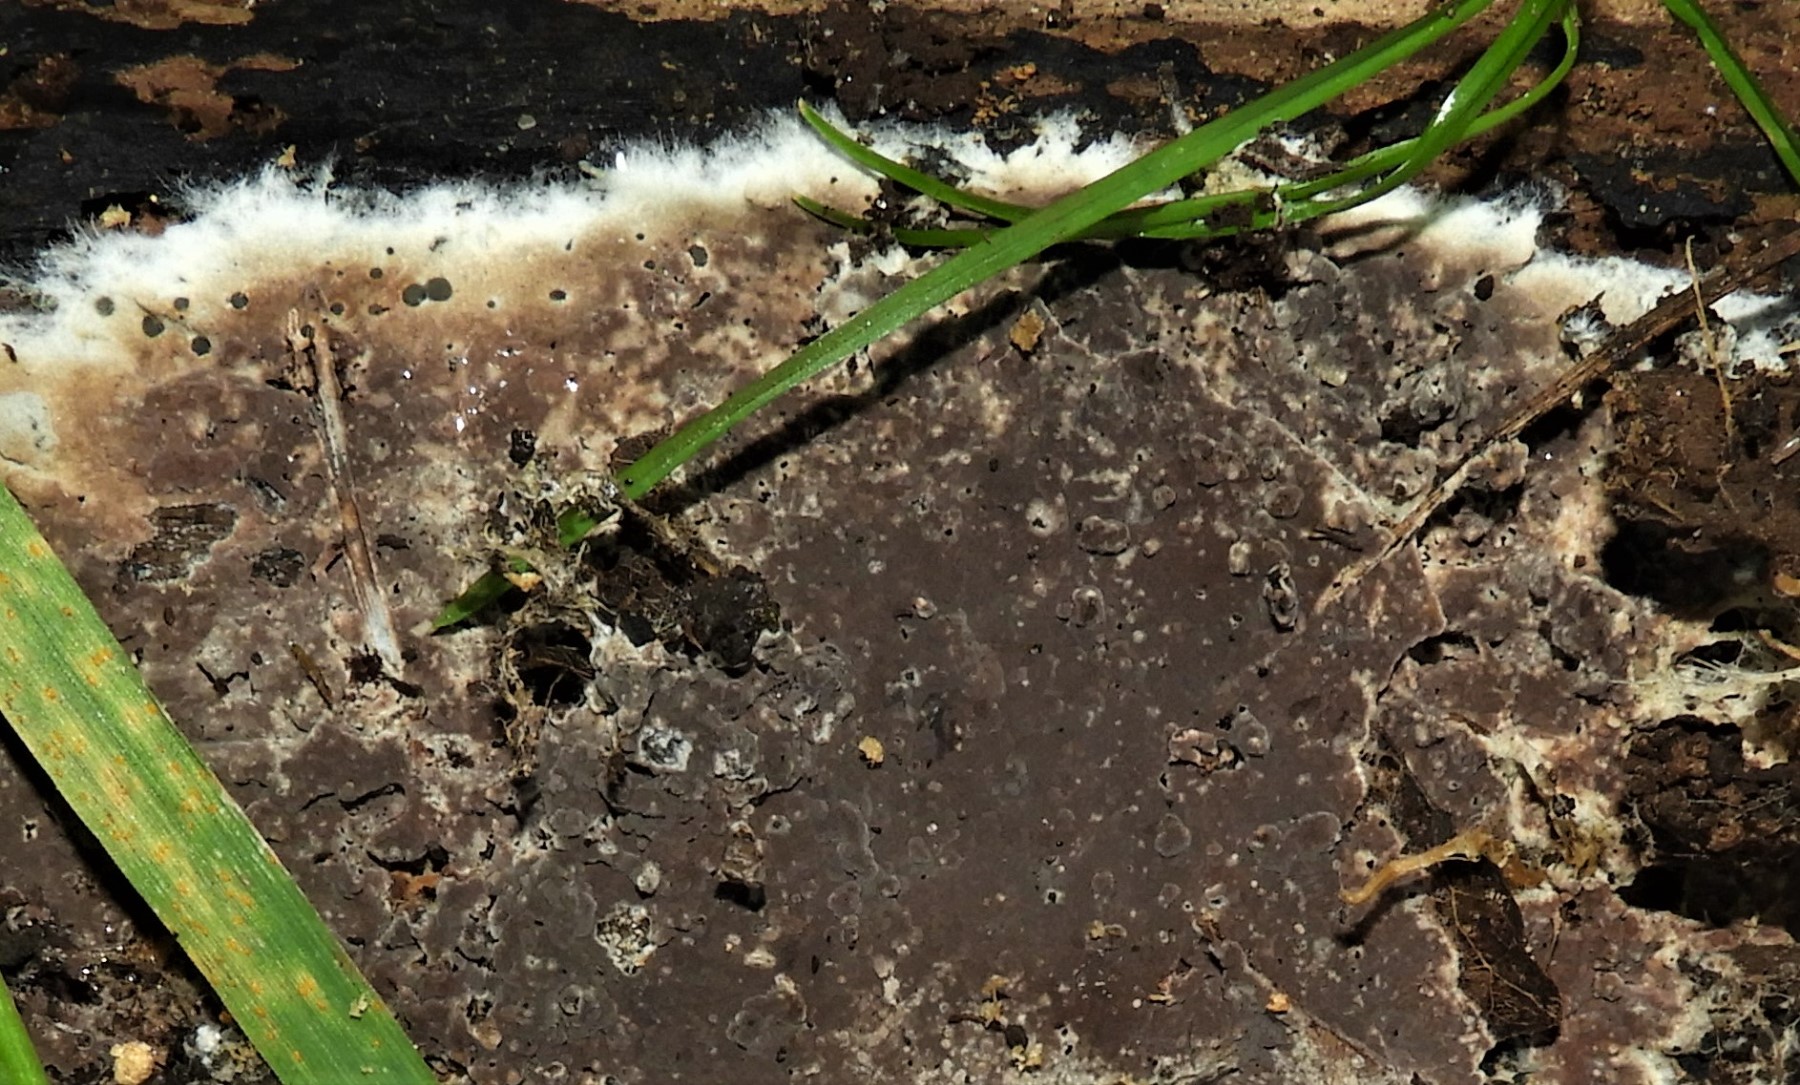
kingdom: Fungi
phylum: Basidiomycota
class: Agaricomycetes
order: Russulales
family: Peniophoraceae
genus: Peniophora
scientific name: Peniophora quercina
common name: ege-voksskind
